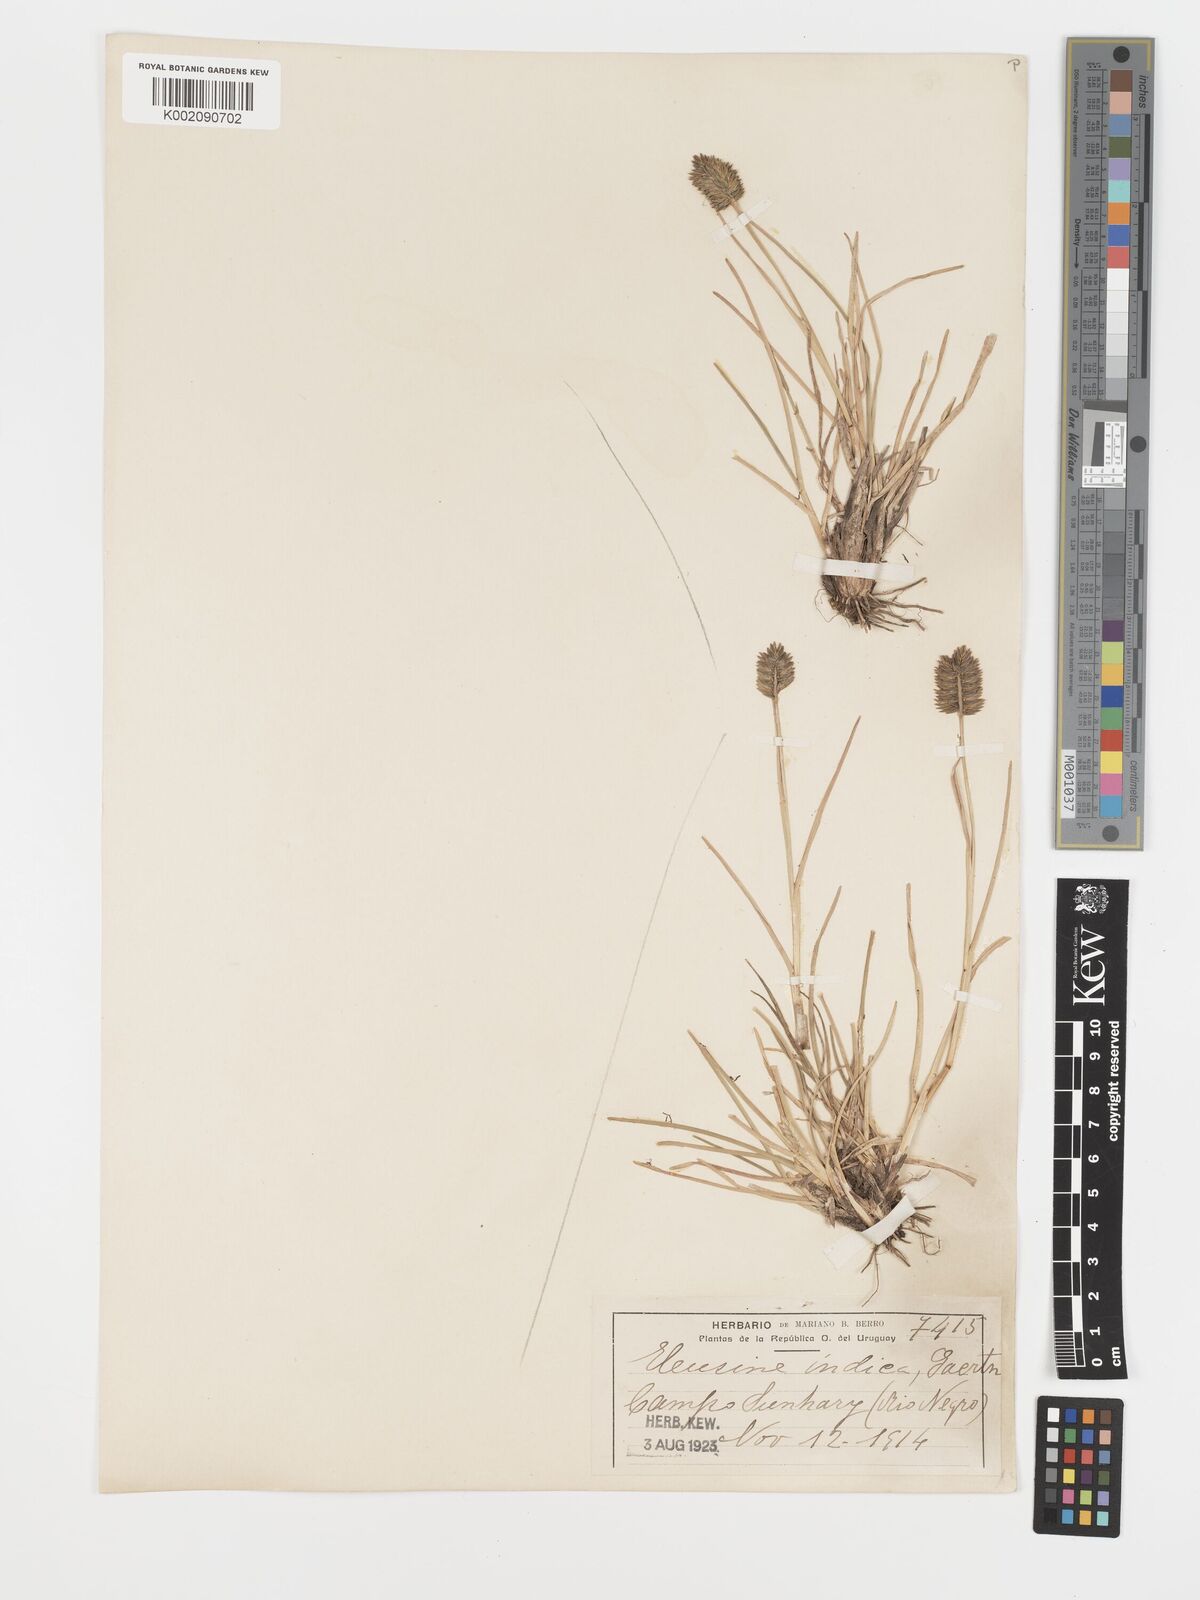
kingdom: Plantae
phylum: Tracheophyta
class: Liliopsida
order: Poales
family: Poaceae
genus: Eleusine
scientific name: Eleusine tristachya
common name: American yard-grass
